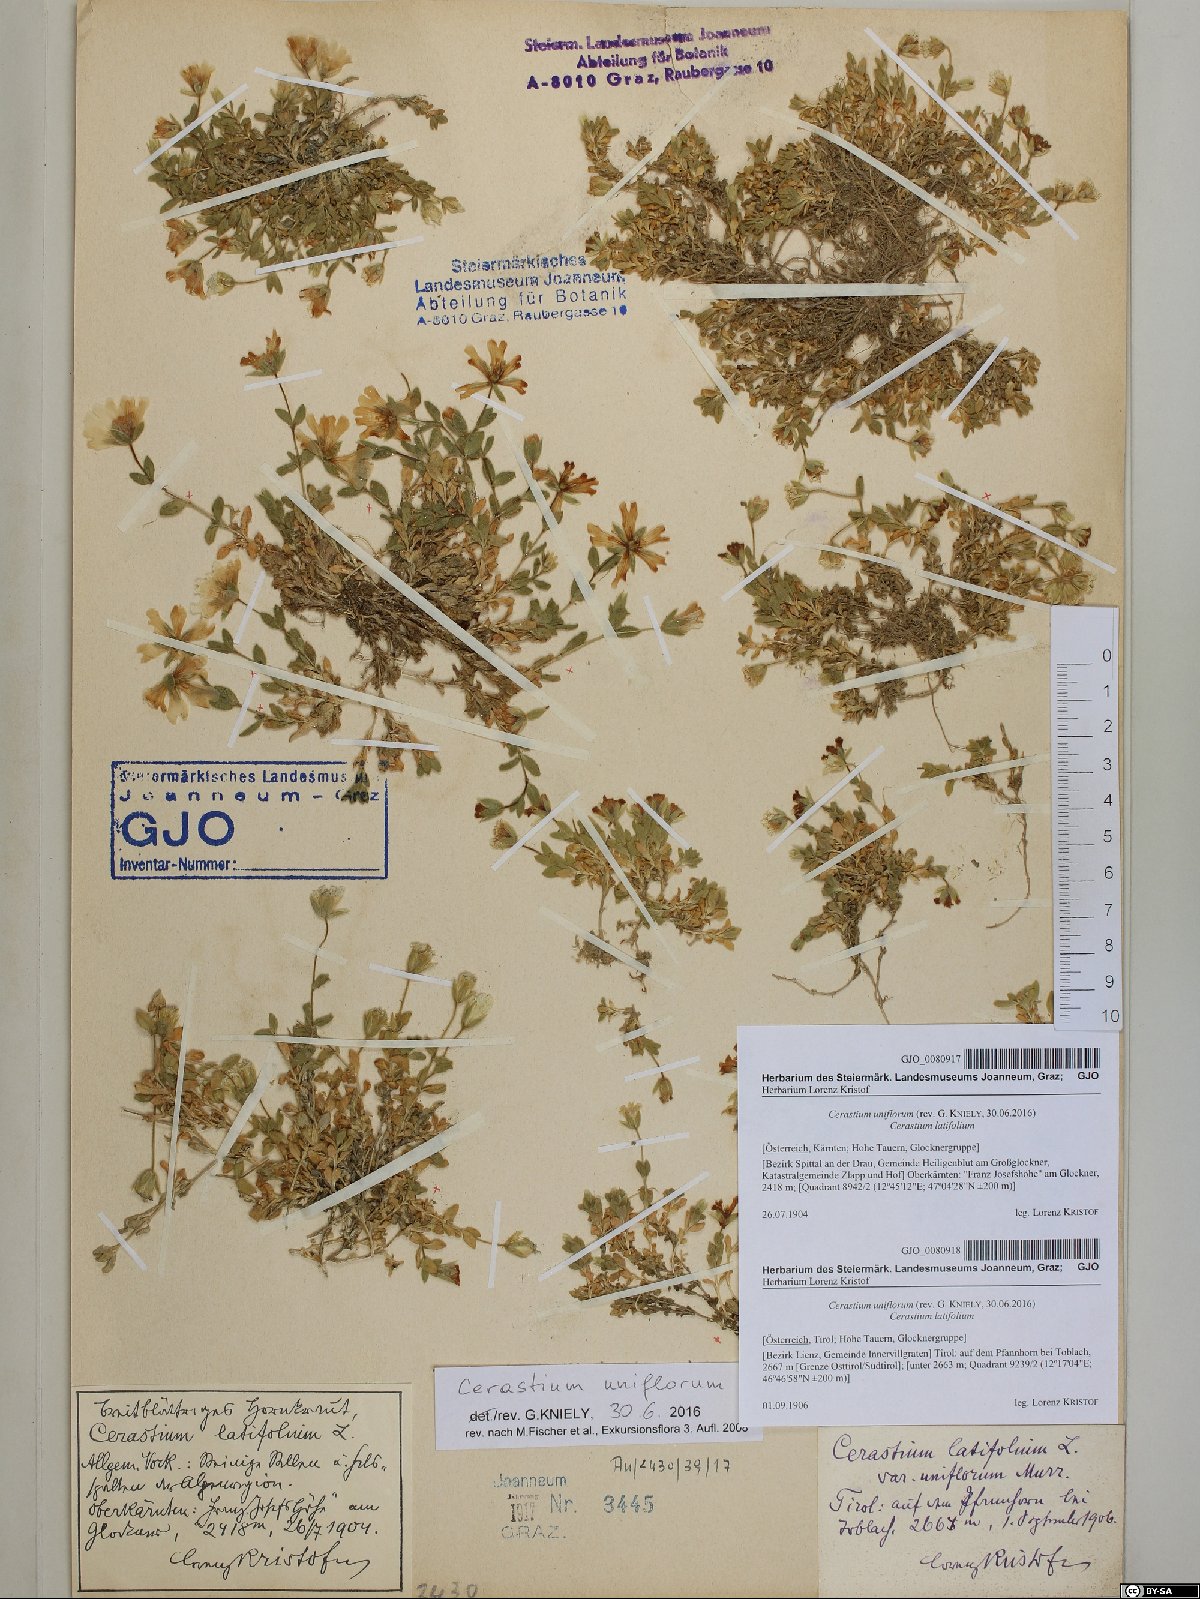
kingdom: Plantae
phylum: Tracheophyta
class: Magnoliopsida
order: Caryophyllales
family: Caryophyllaceae
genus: Cerastium
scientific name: Cerastium uniflorum
